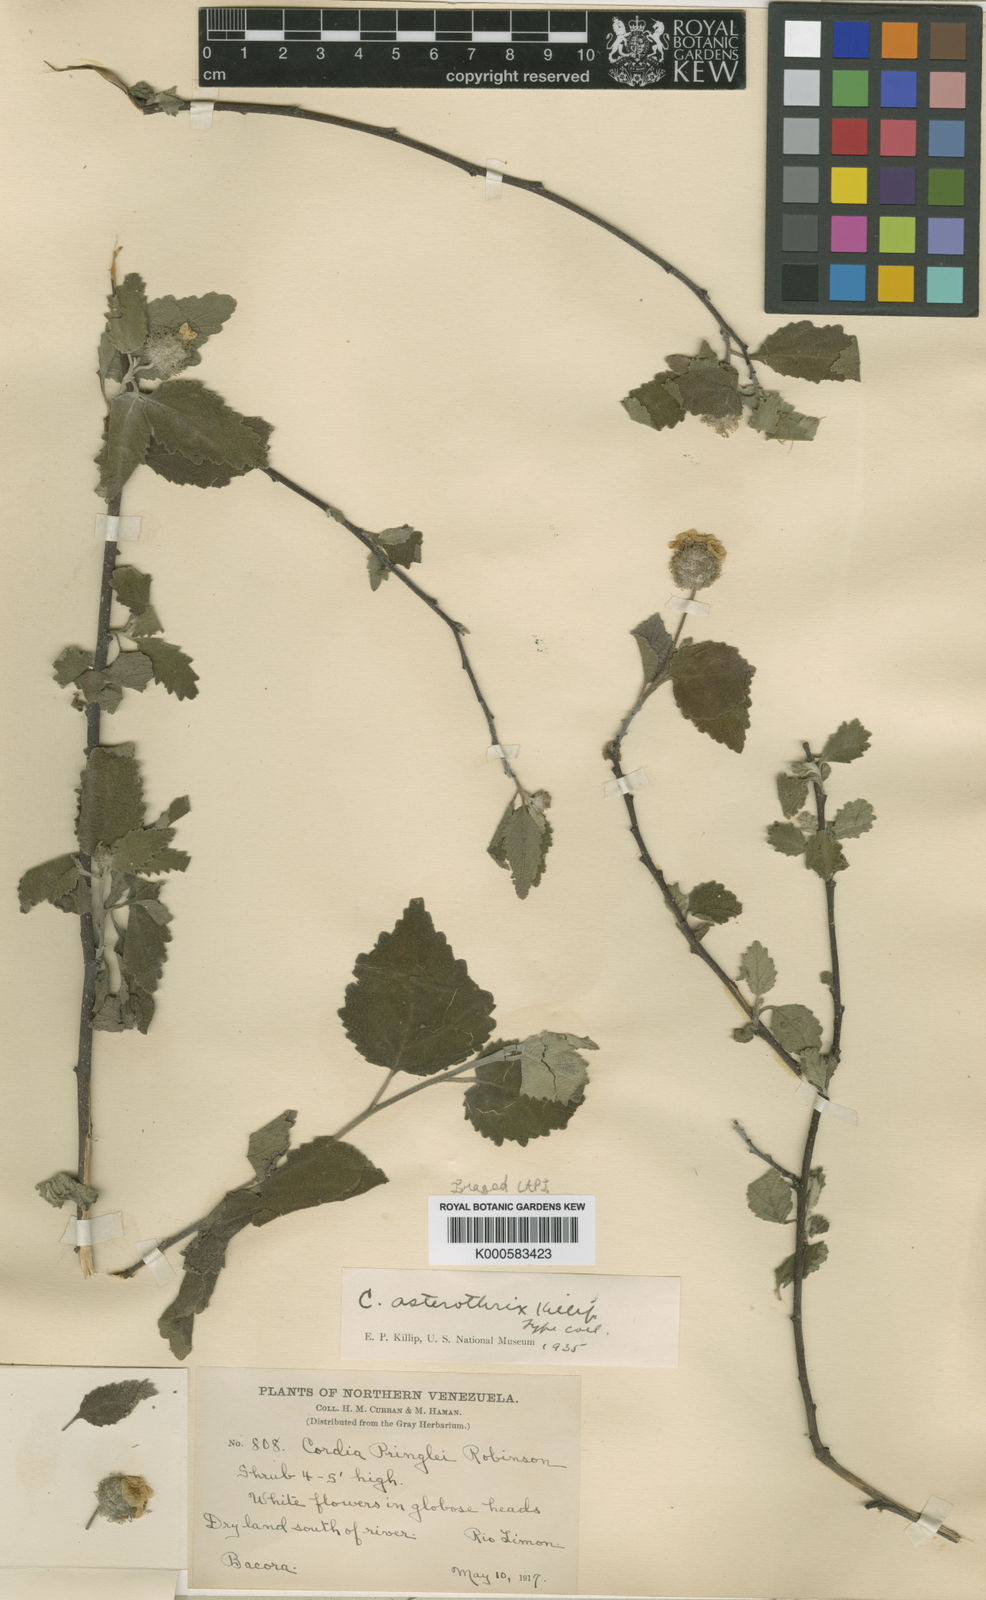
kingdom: Plantae
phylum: Tracheophyta
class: Magnoliopsida
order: Boraginales
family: Cordiaceae
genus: Varronia
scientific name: Varronia macrocephala
